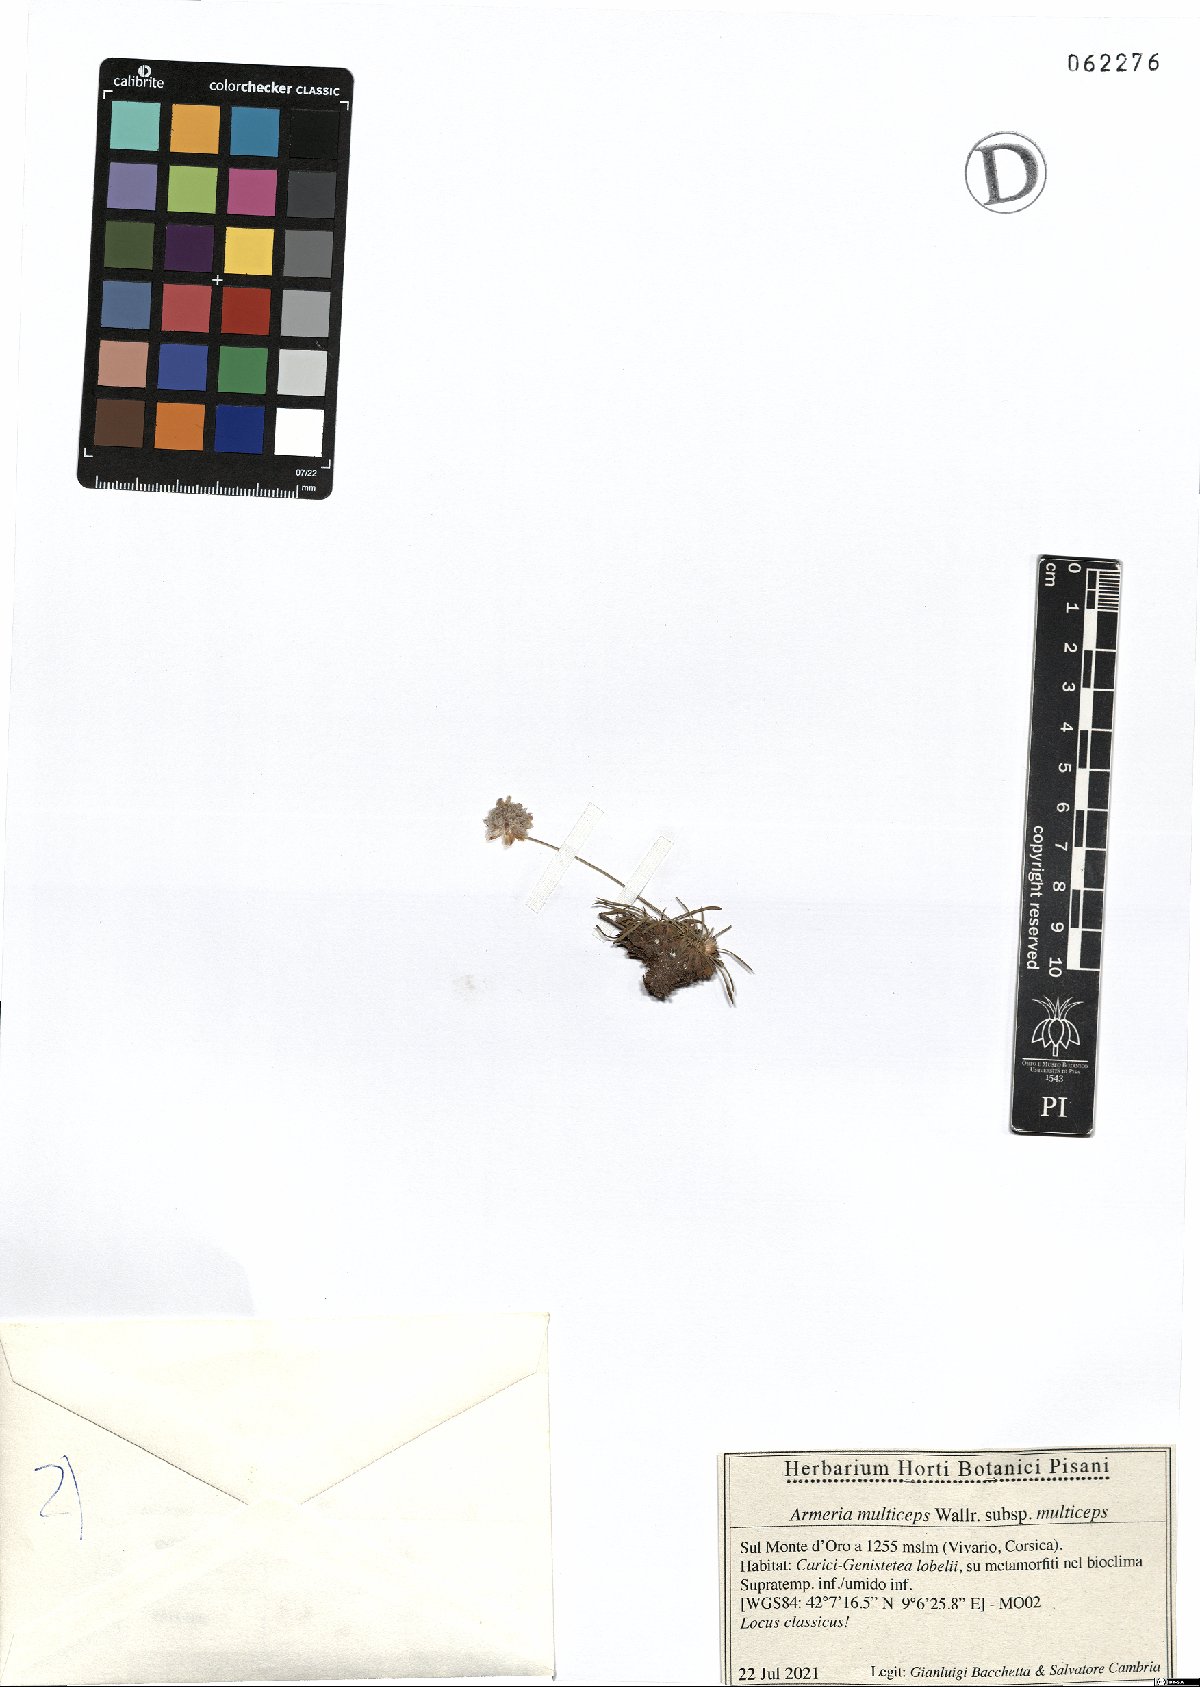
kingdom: Plantae
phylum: Tracheophyta
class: Magnoliopsida
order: Caryophyllales
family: Plumbaginaceae
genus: Armeria
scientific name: Armeria multiceps
